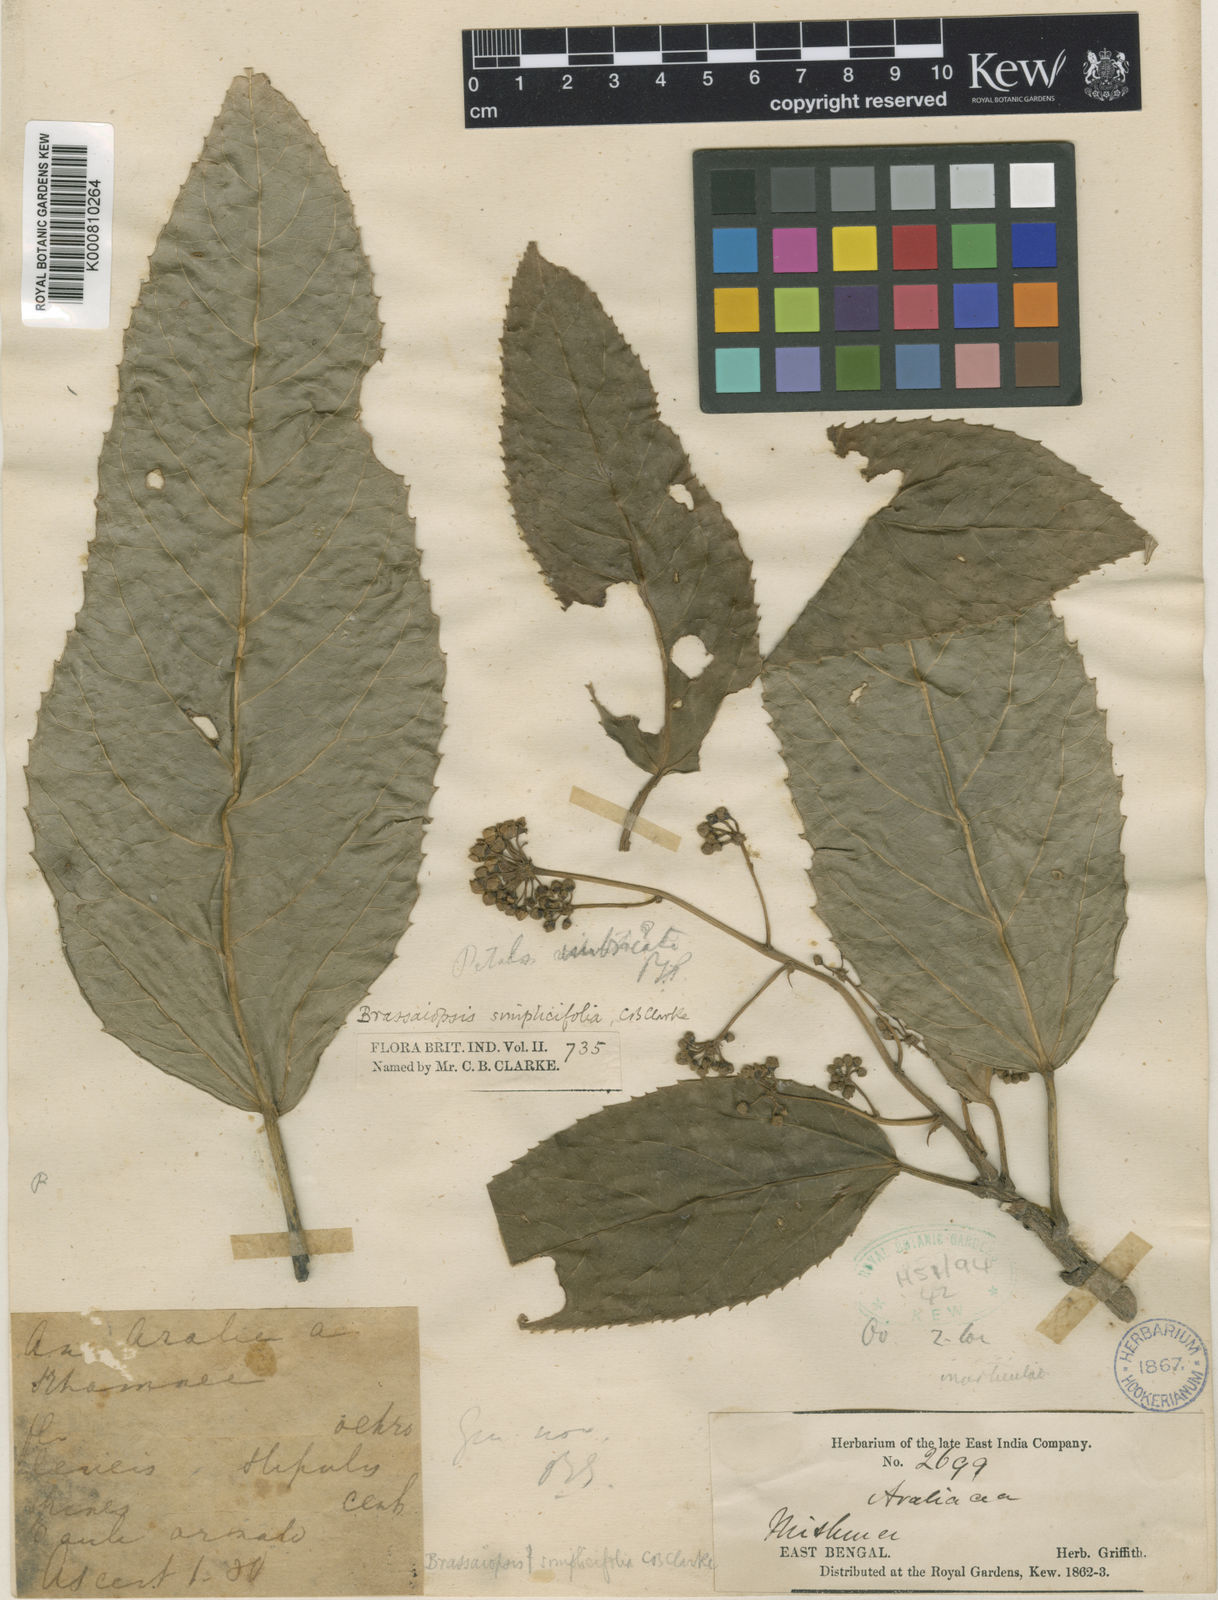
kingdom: Plantae
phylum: Tracheophyta
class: Magnoliopsida
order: Apiales
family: Araliaceae
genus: Brassaiopsis
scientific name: Brassaiopsis simplicifolia
